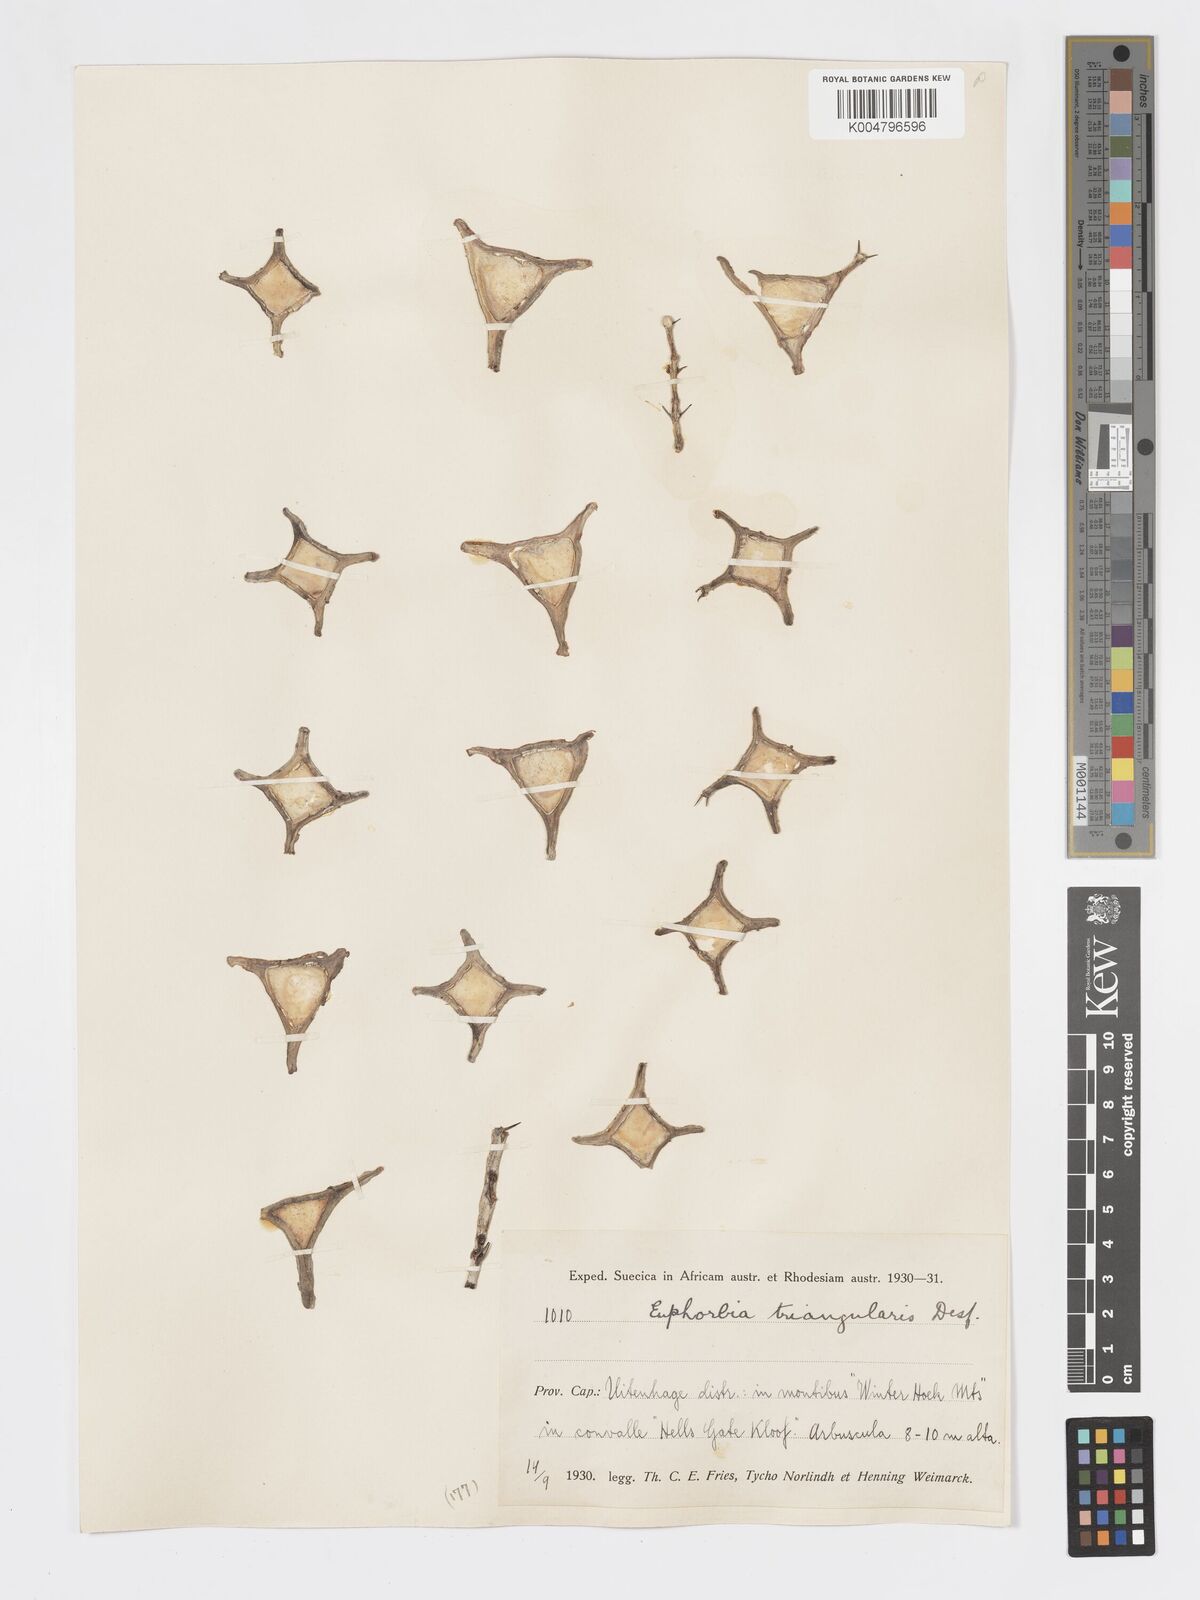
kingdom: Plantae
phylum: Tracheophyta
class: Magnoliopsida
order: Malpighiales
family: Euphorbiaceae
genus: Euphorbia
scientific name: Euphorbia triangularis
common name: Chandelier tree
